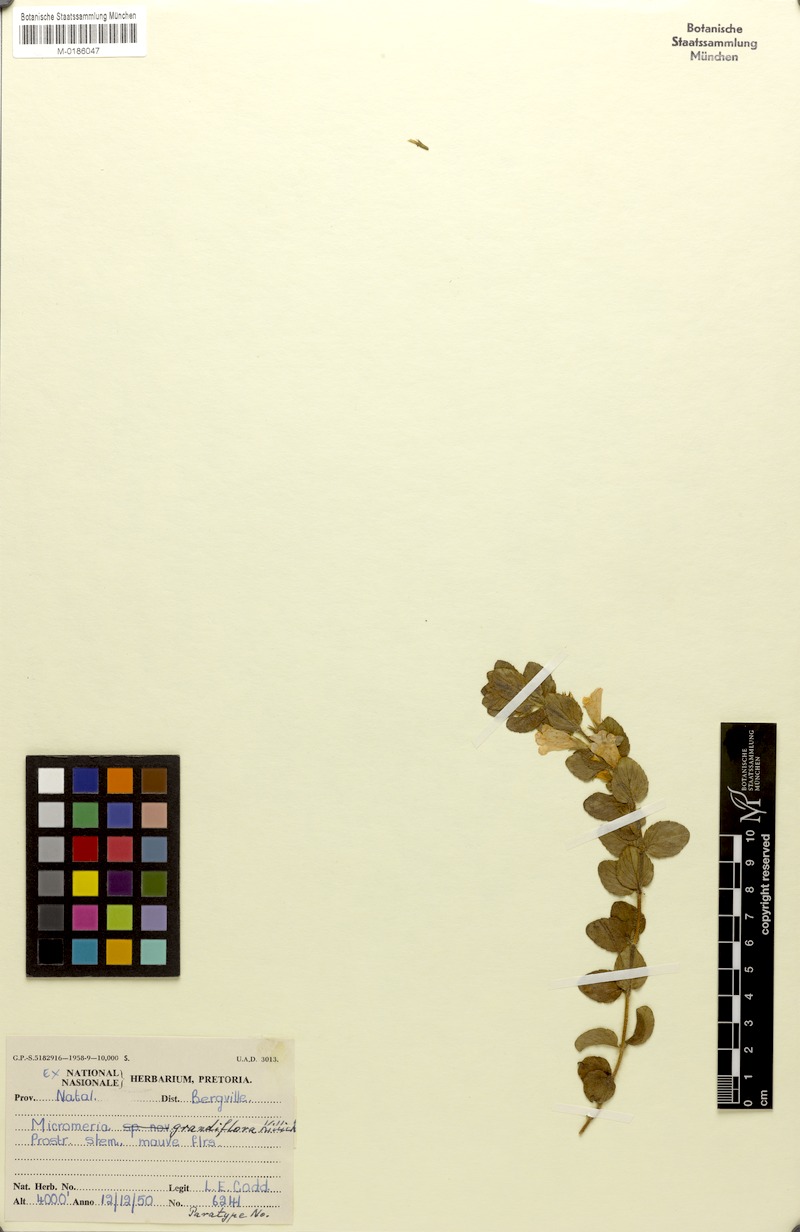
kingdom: Plantae
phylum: Tracheophyta
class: Magnoliopsida
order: Lamiales
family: Lamiaceae
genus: Killickia
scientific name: Killickia grandiflora
